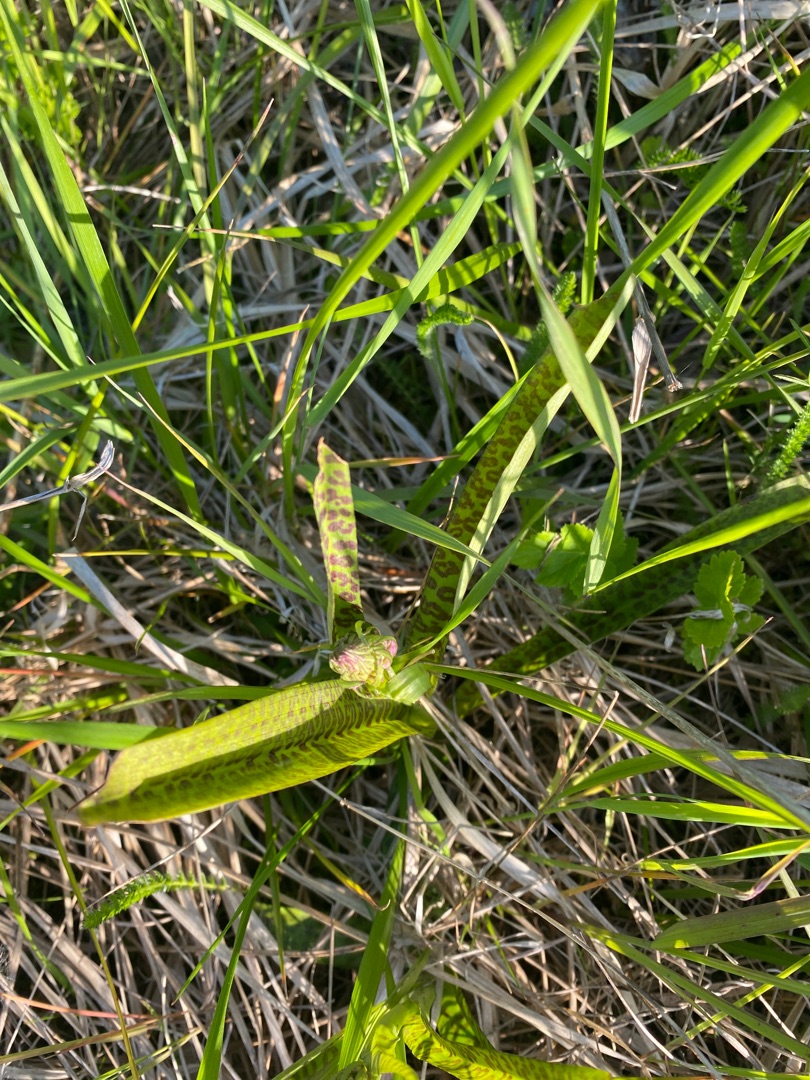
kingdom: Plantae
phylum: Tracheophyta
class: Liliopsida
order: Asparagales
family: Orchidaceae
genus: Dactylorhiza
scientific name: Dactylorhiza majalis
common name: Ringplettet gøgeurt
